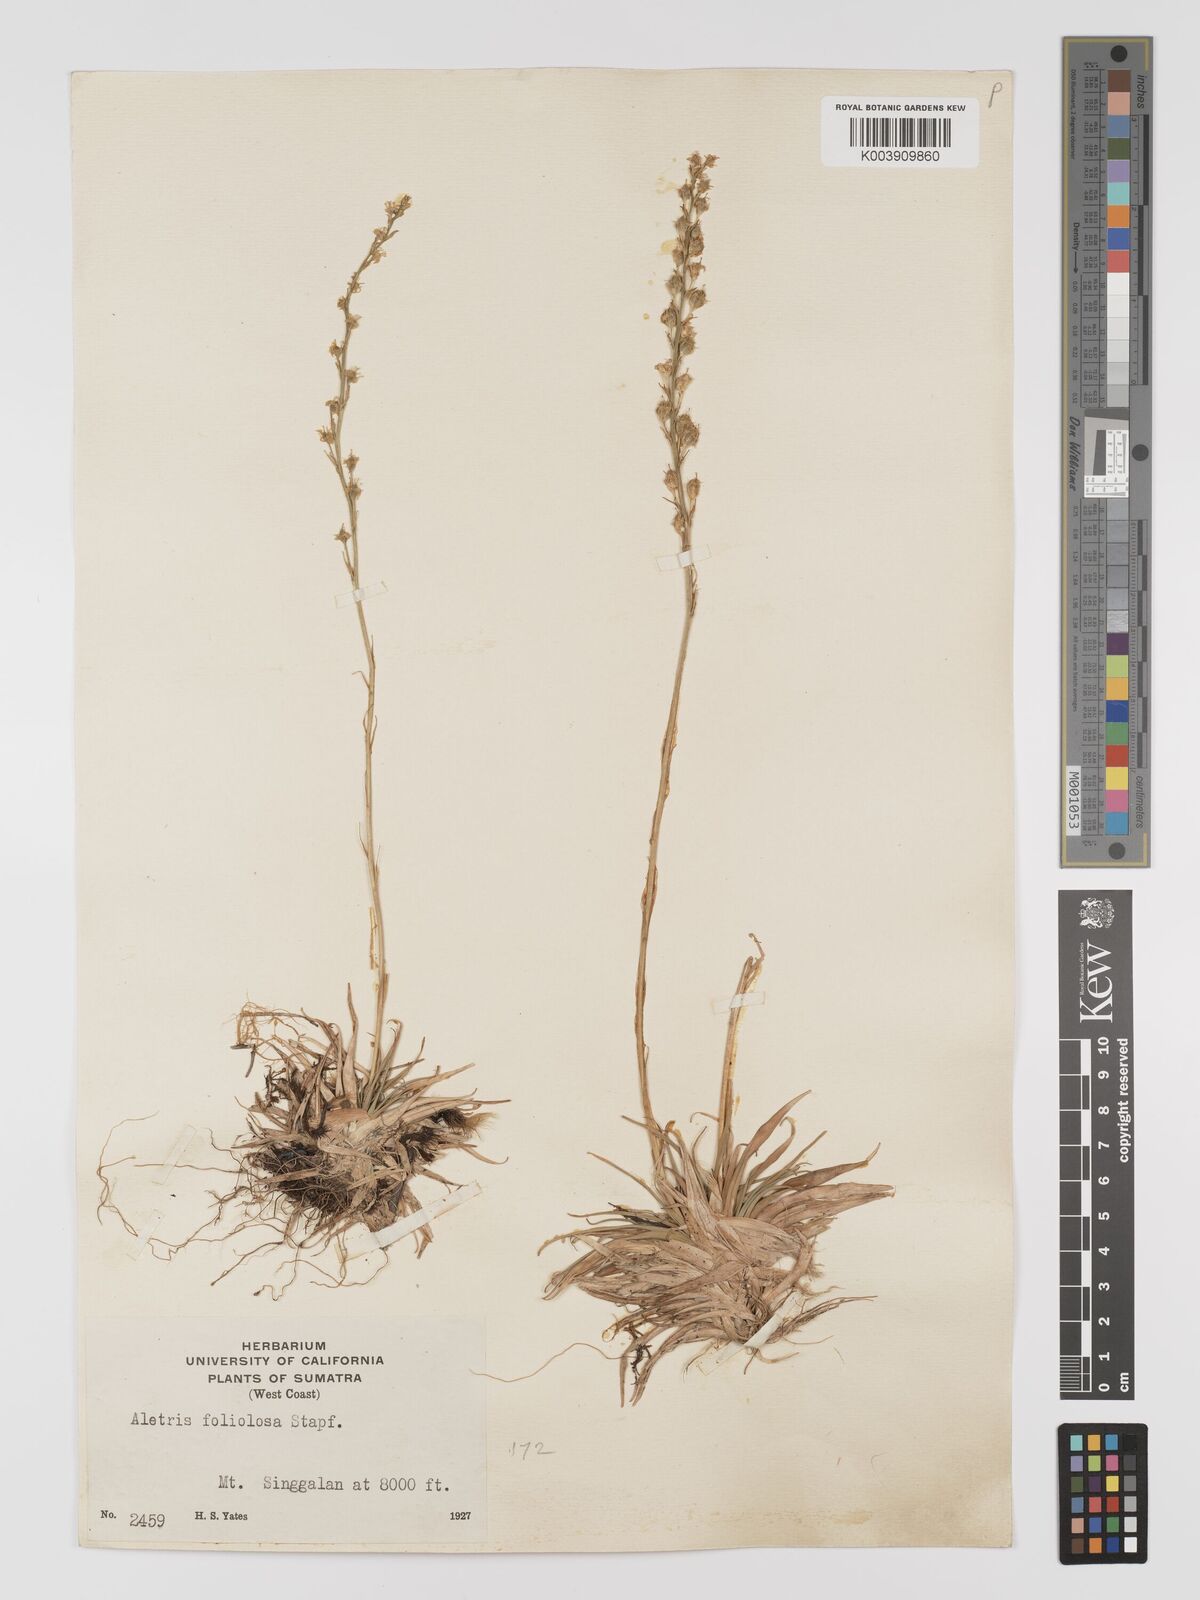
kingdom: Plantae
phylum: Tracheophyta
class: Liliopsida
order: Dioscoreales
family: Nartheciaceae
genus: Aletris
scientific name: Aletris foliolosa
